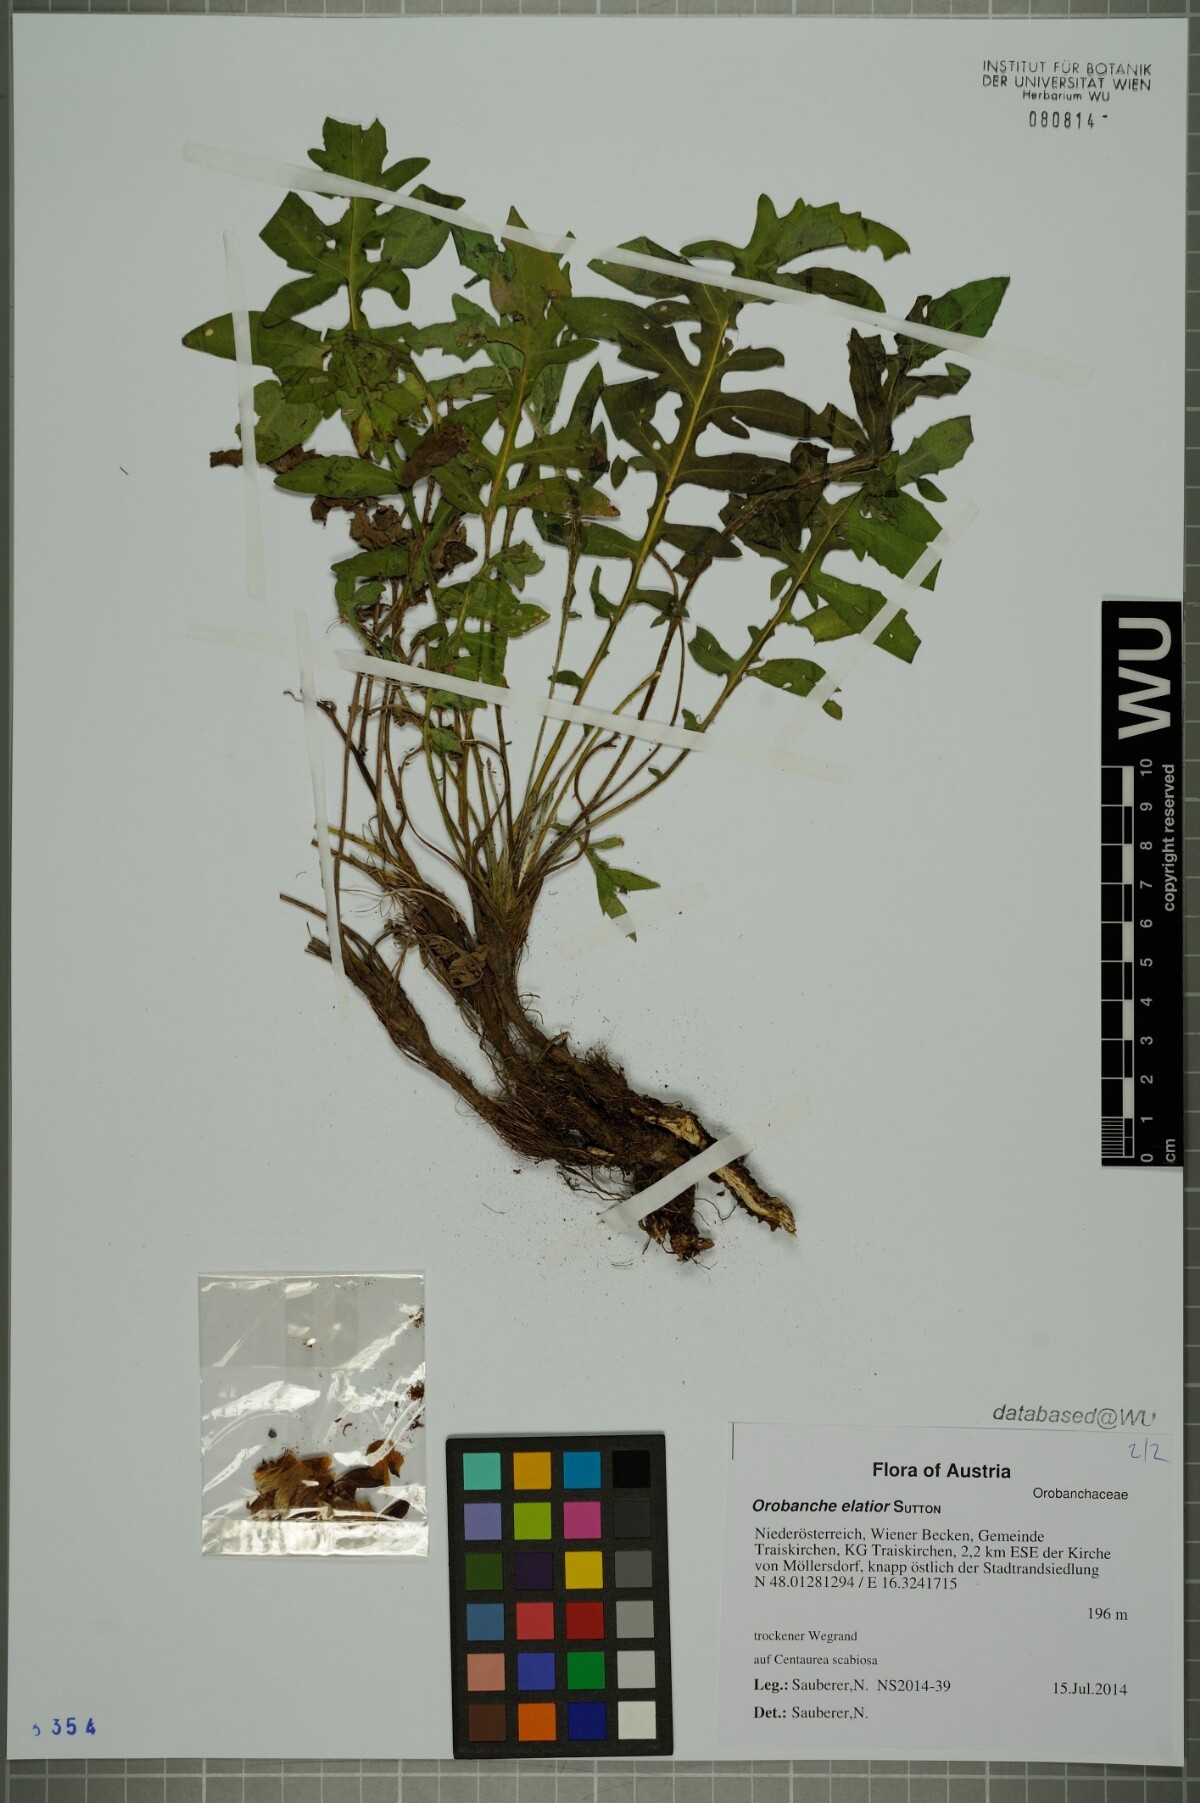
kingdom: Plantae
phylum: Tracheophyta
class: Magnoliopsida
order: Lamiales
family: Orobanchaceae
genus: Orobanche
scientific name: Orobanche elatior
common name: Knapweed broomrape
